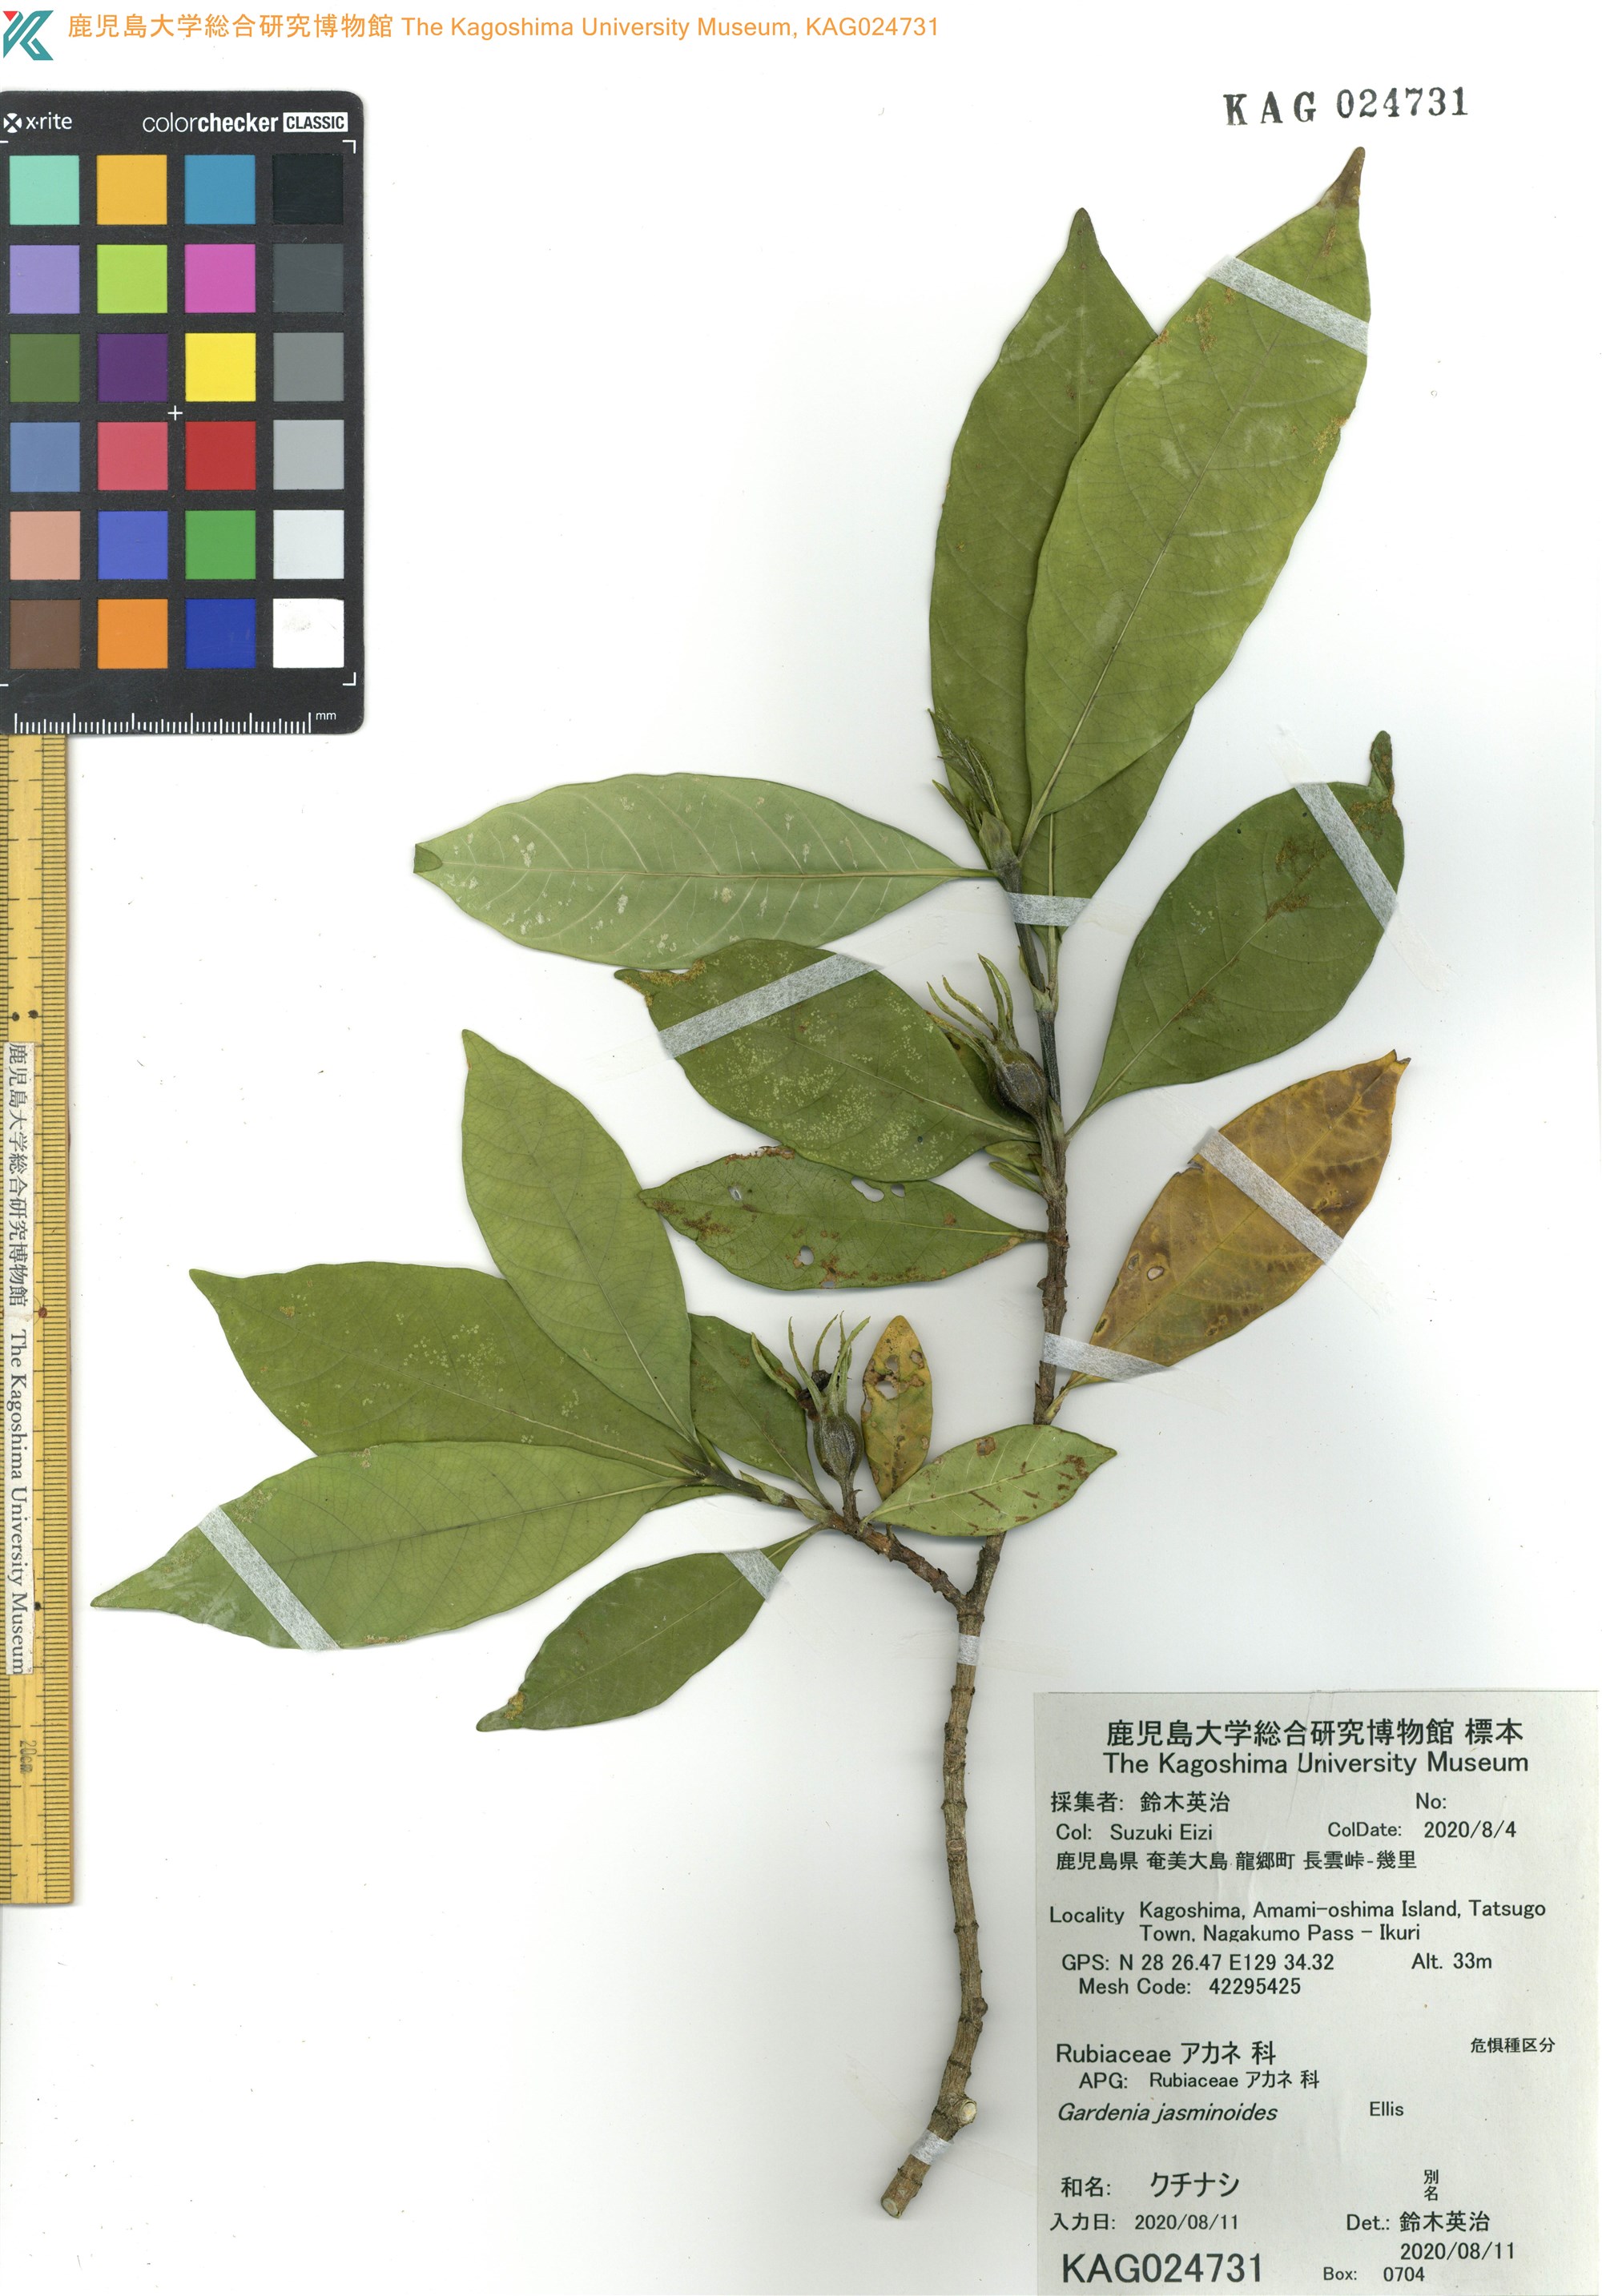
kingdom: Plantae
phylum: Tracheophyta
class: Magnoliopsida
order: Gentianales
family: Rubiaceae
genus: Gardenia
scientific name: Gardenia jasminoides
